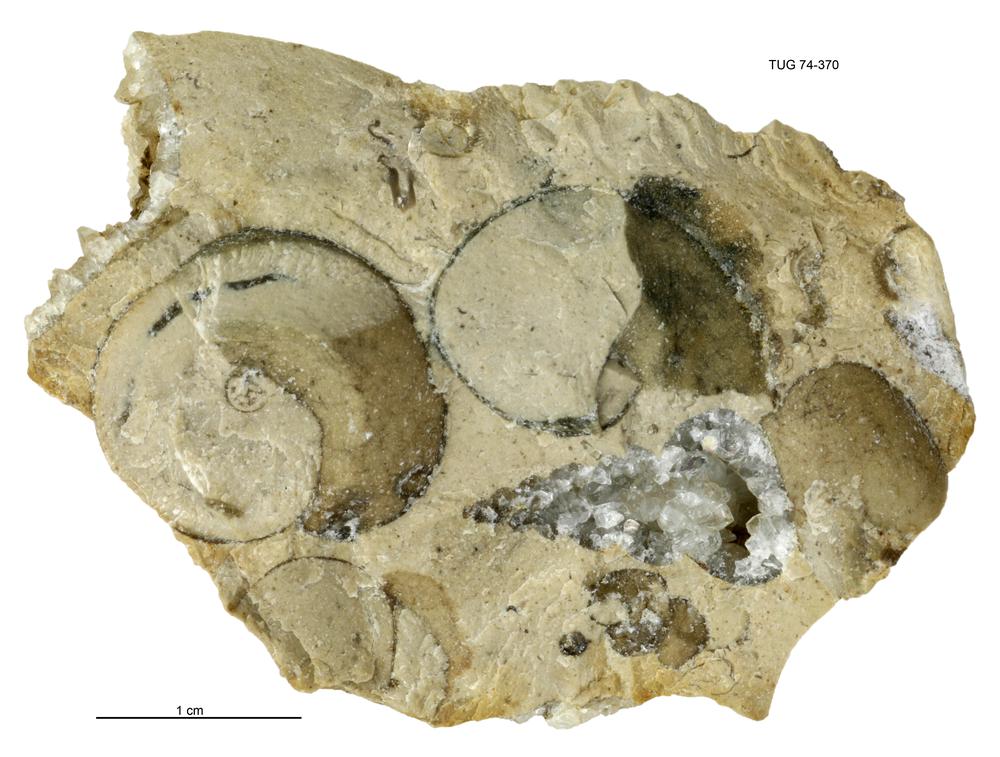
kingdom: Animalia
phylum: Mollusca
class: Gastropoda
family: Lophospiridae
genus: Lophospira
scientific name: Lophospira
